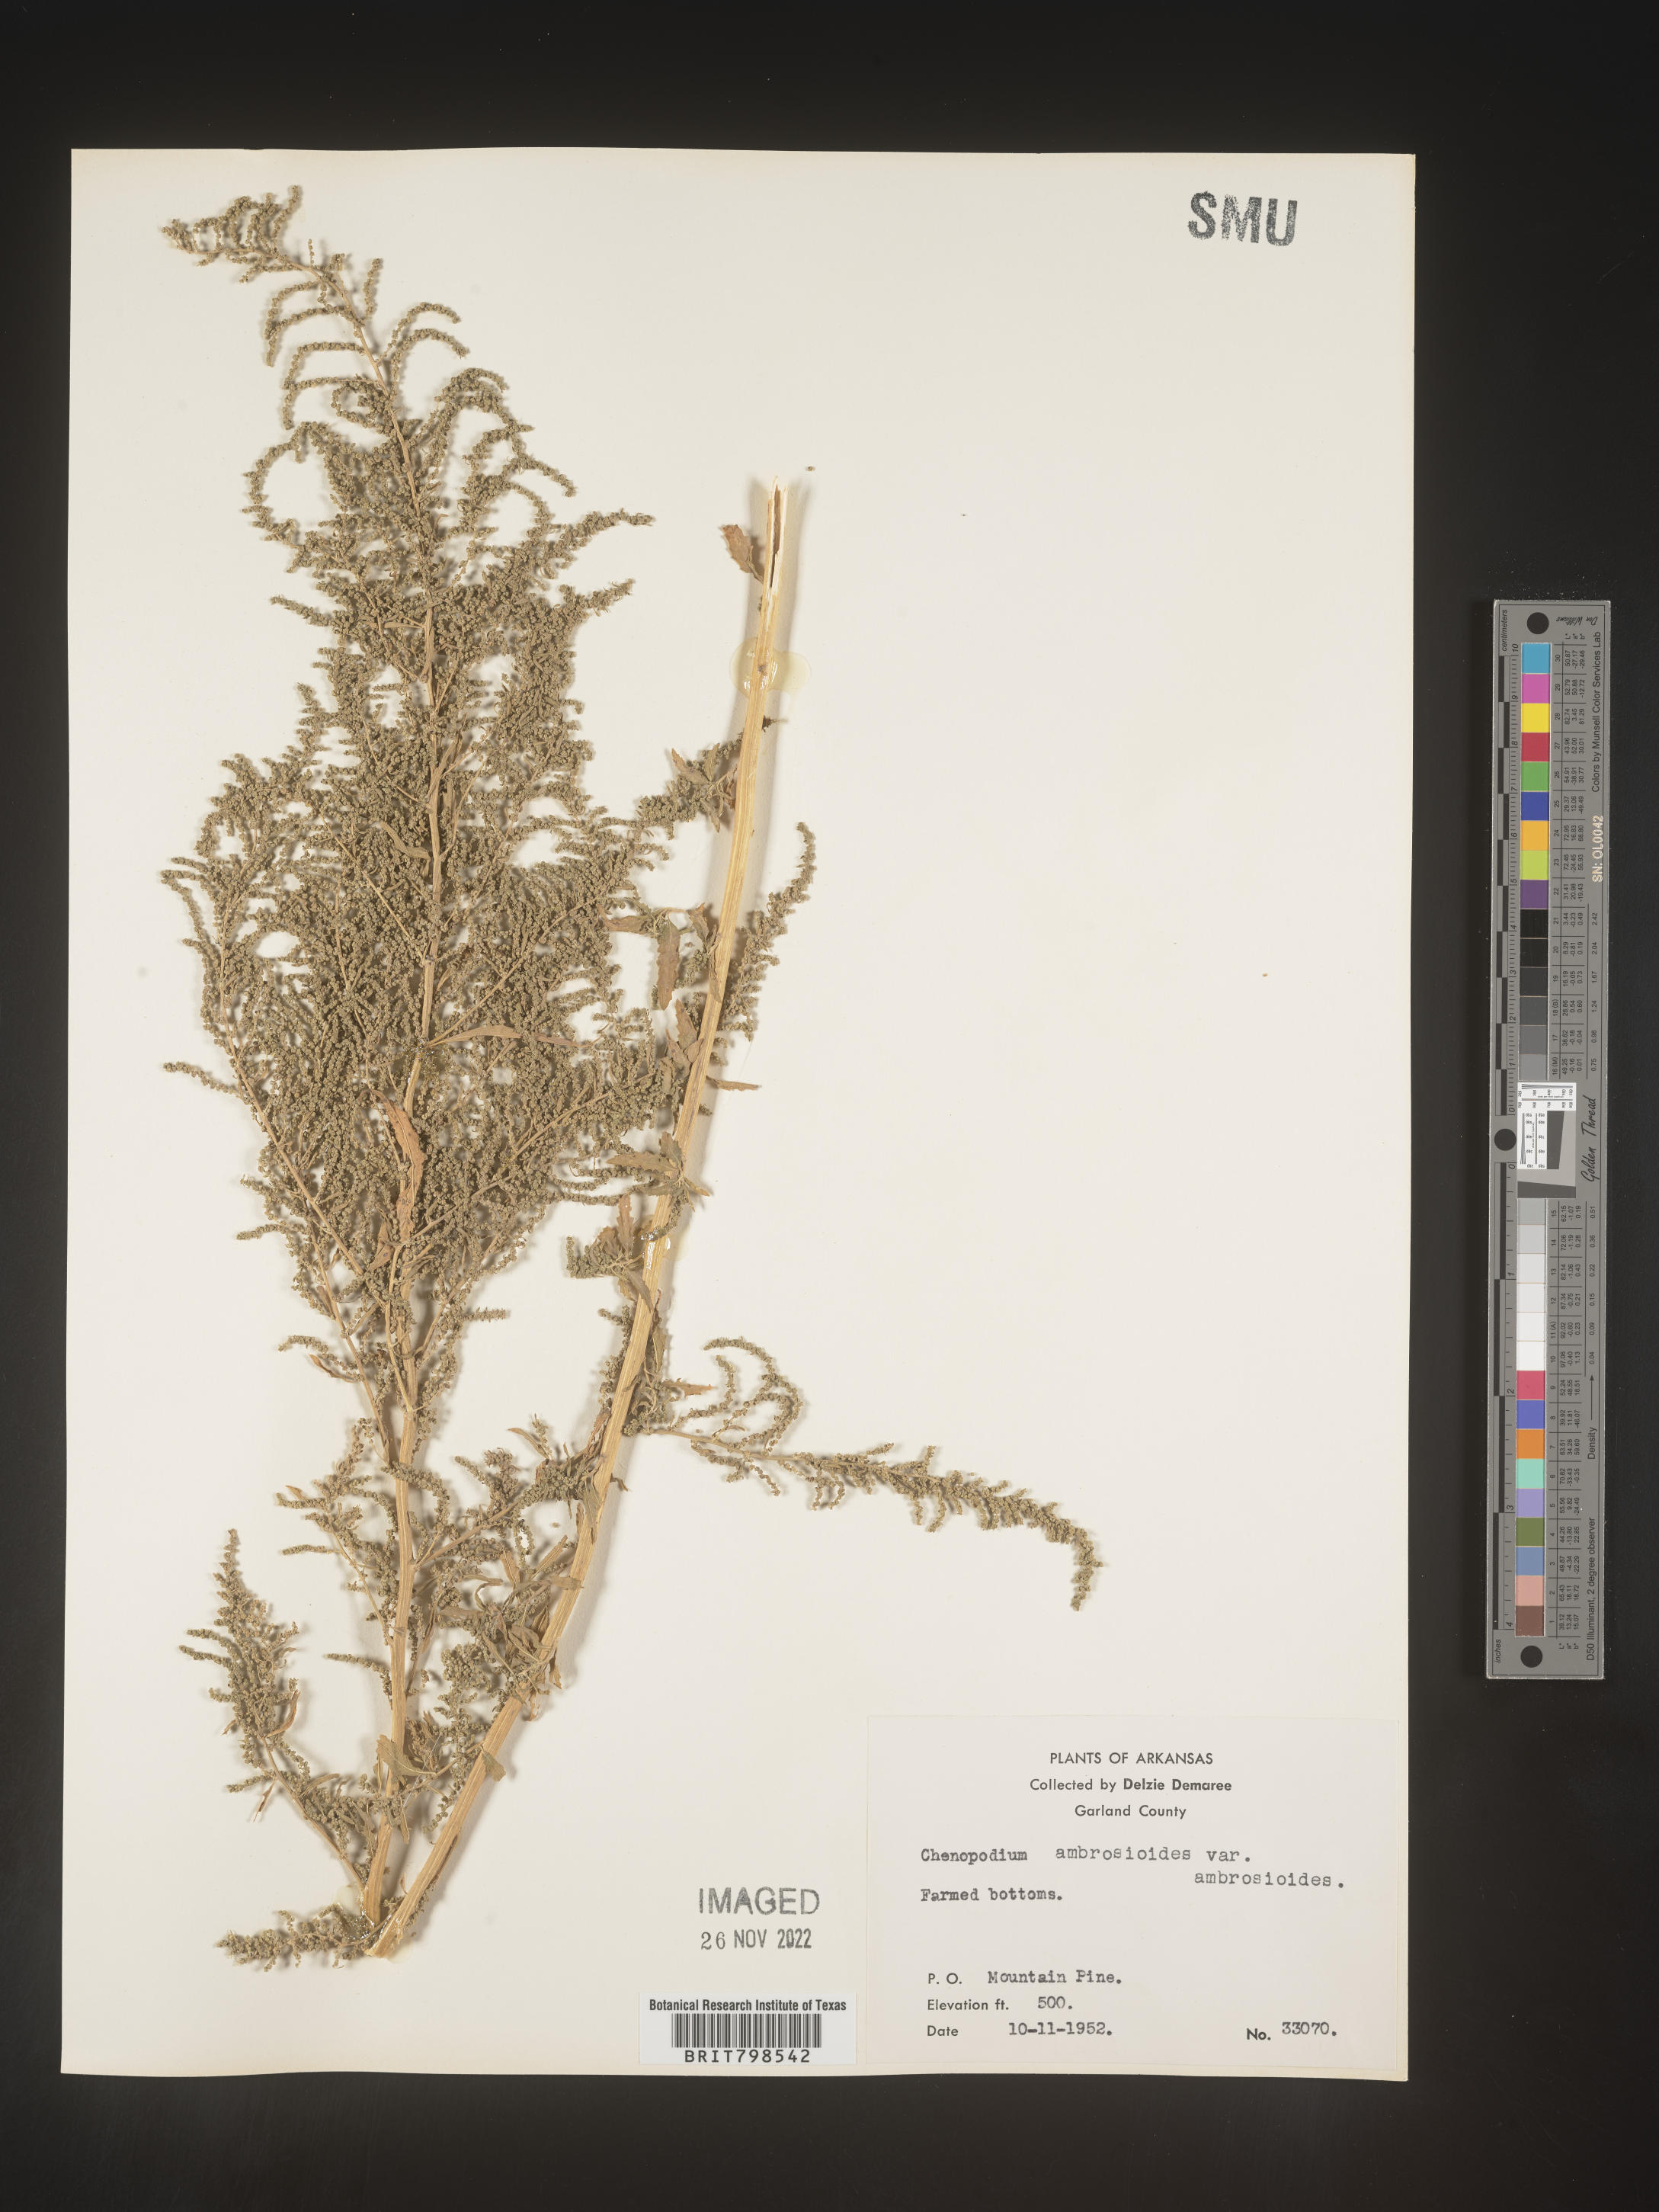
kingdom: Plantae
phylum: Tracheophyta
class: Magnoliopsida
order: Caryophyllales
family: Amaranthaceae
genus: Dysphania
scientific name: Dysphania ambrosioides
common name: Wormseed
